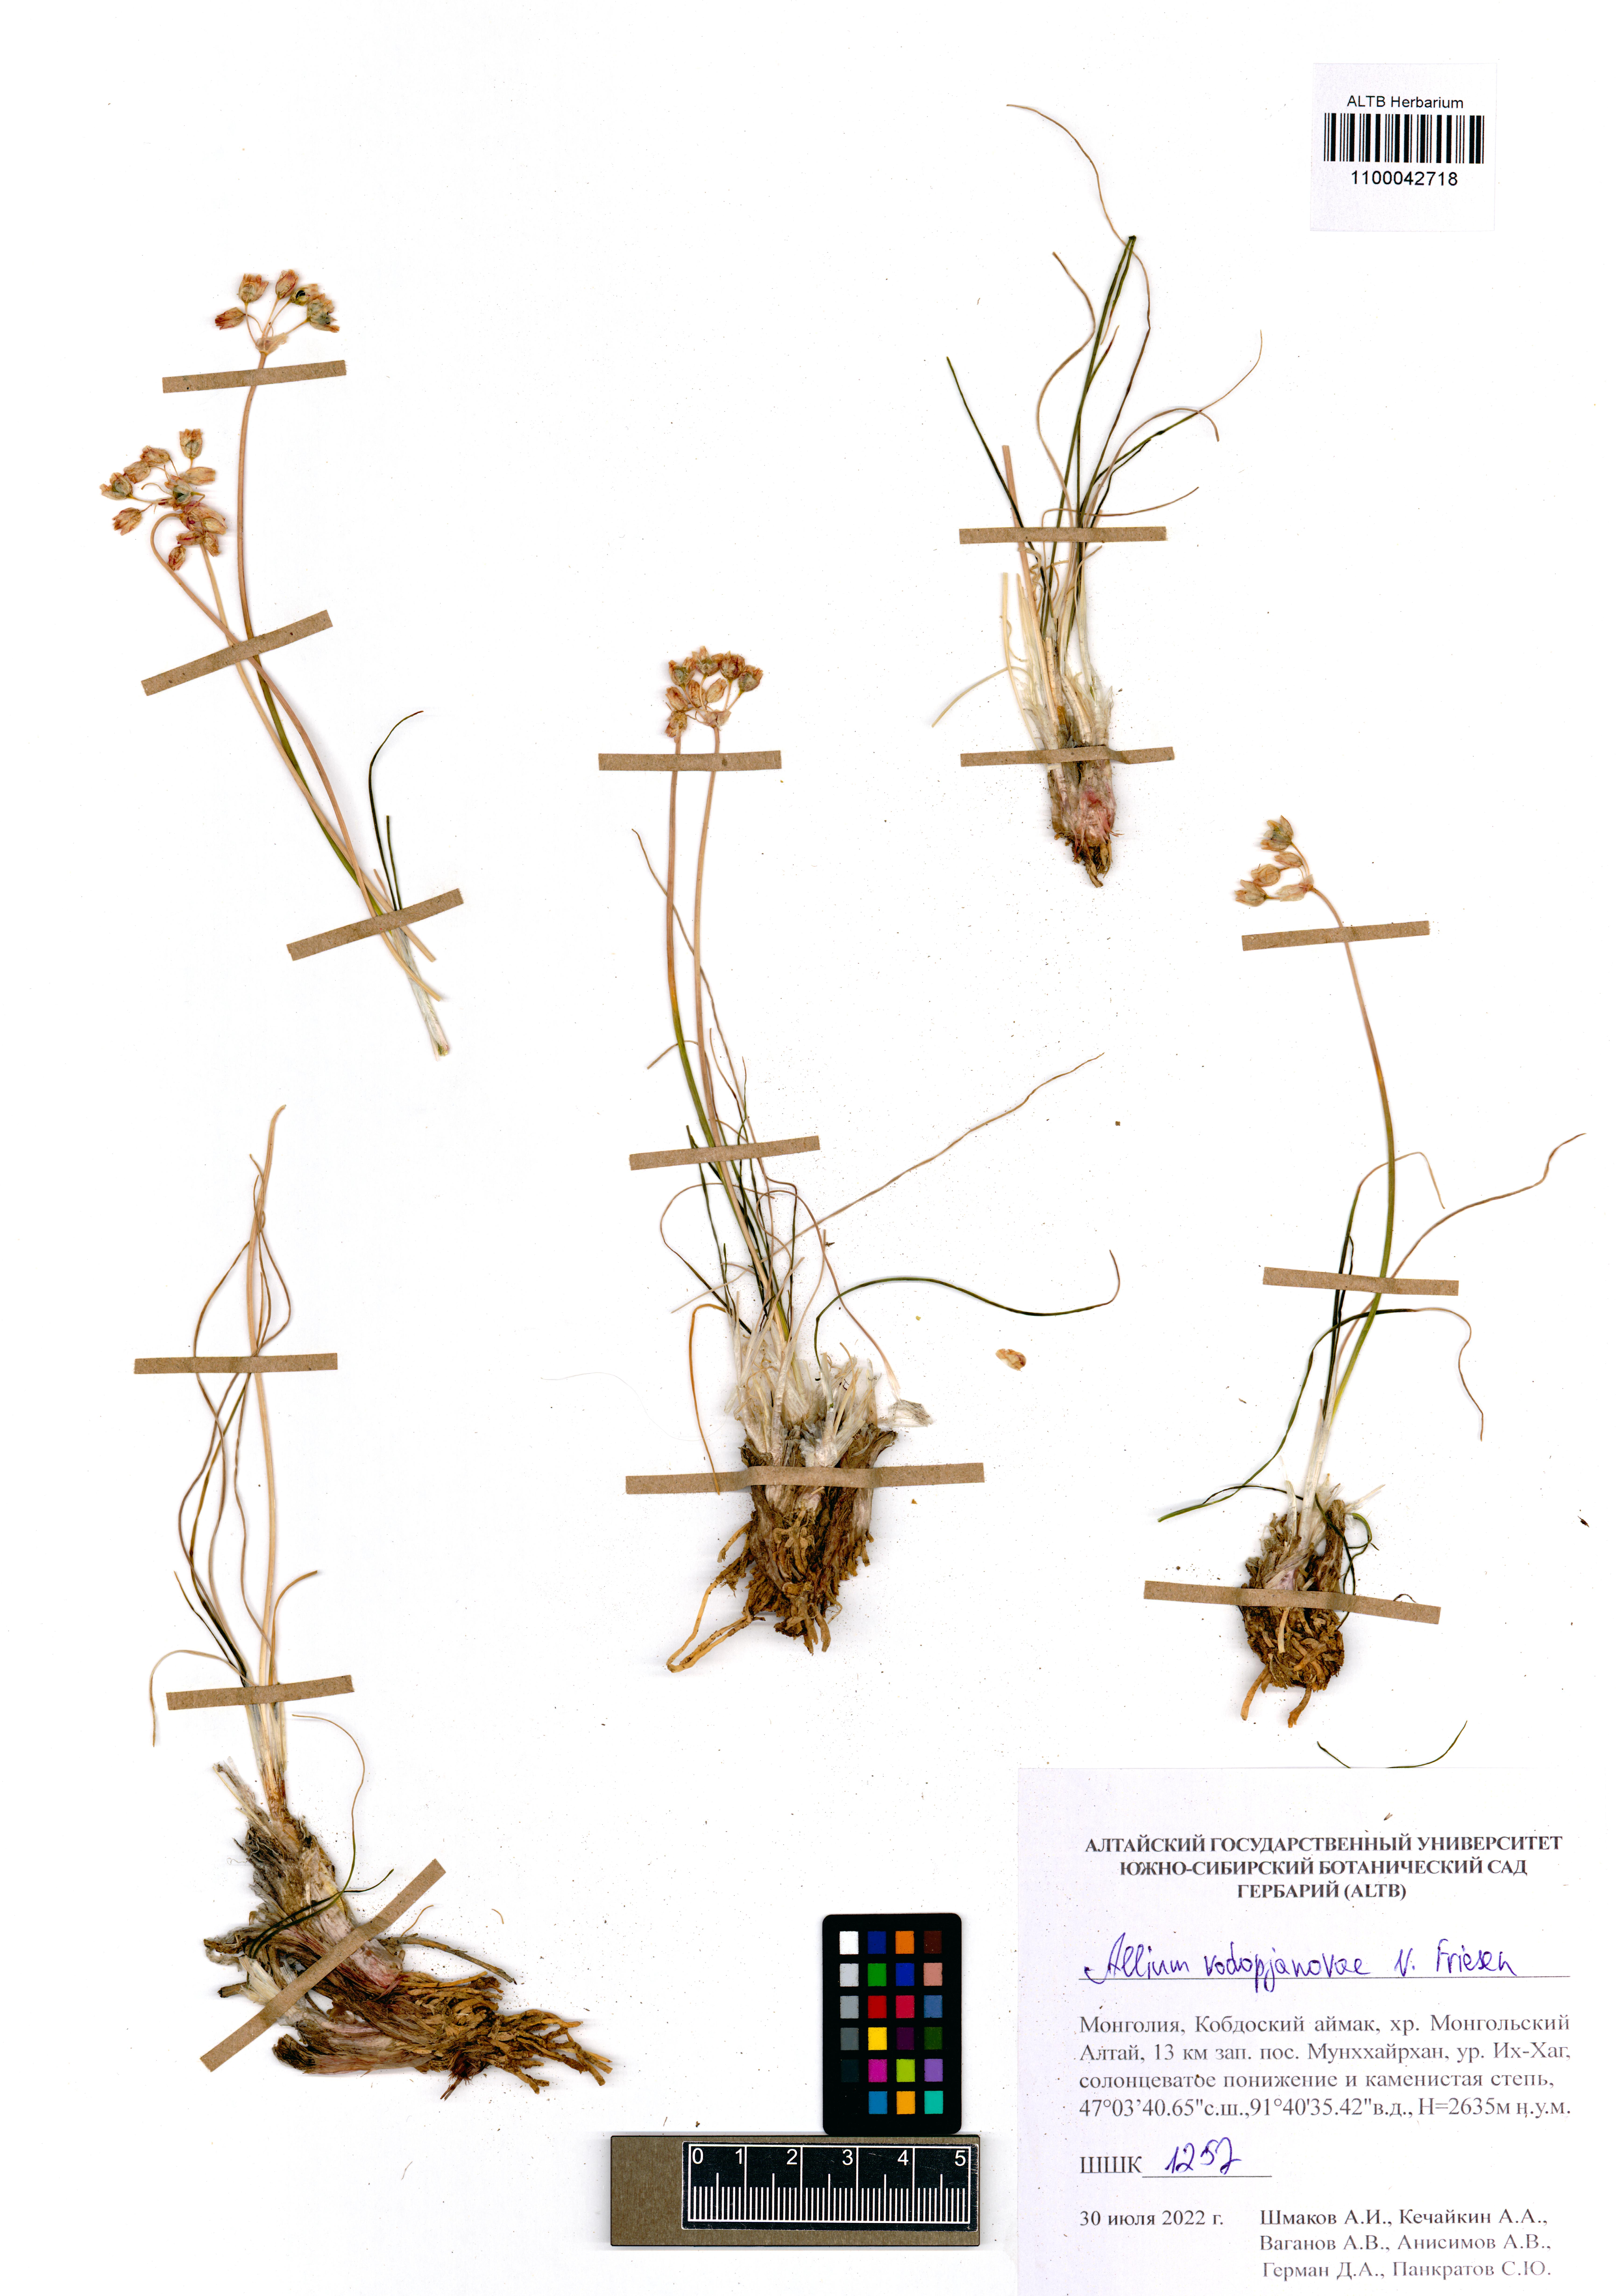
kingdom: Plantae
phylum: Tracheophyta
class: Liliopsida
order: Asparagales
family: Amaryllidaceae
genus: Allium
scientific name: Allium vodopjanovae
